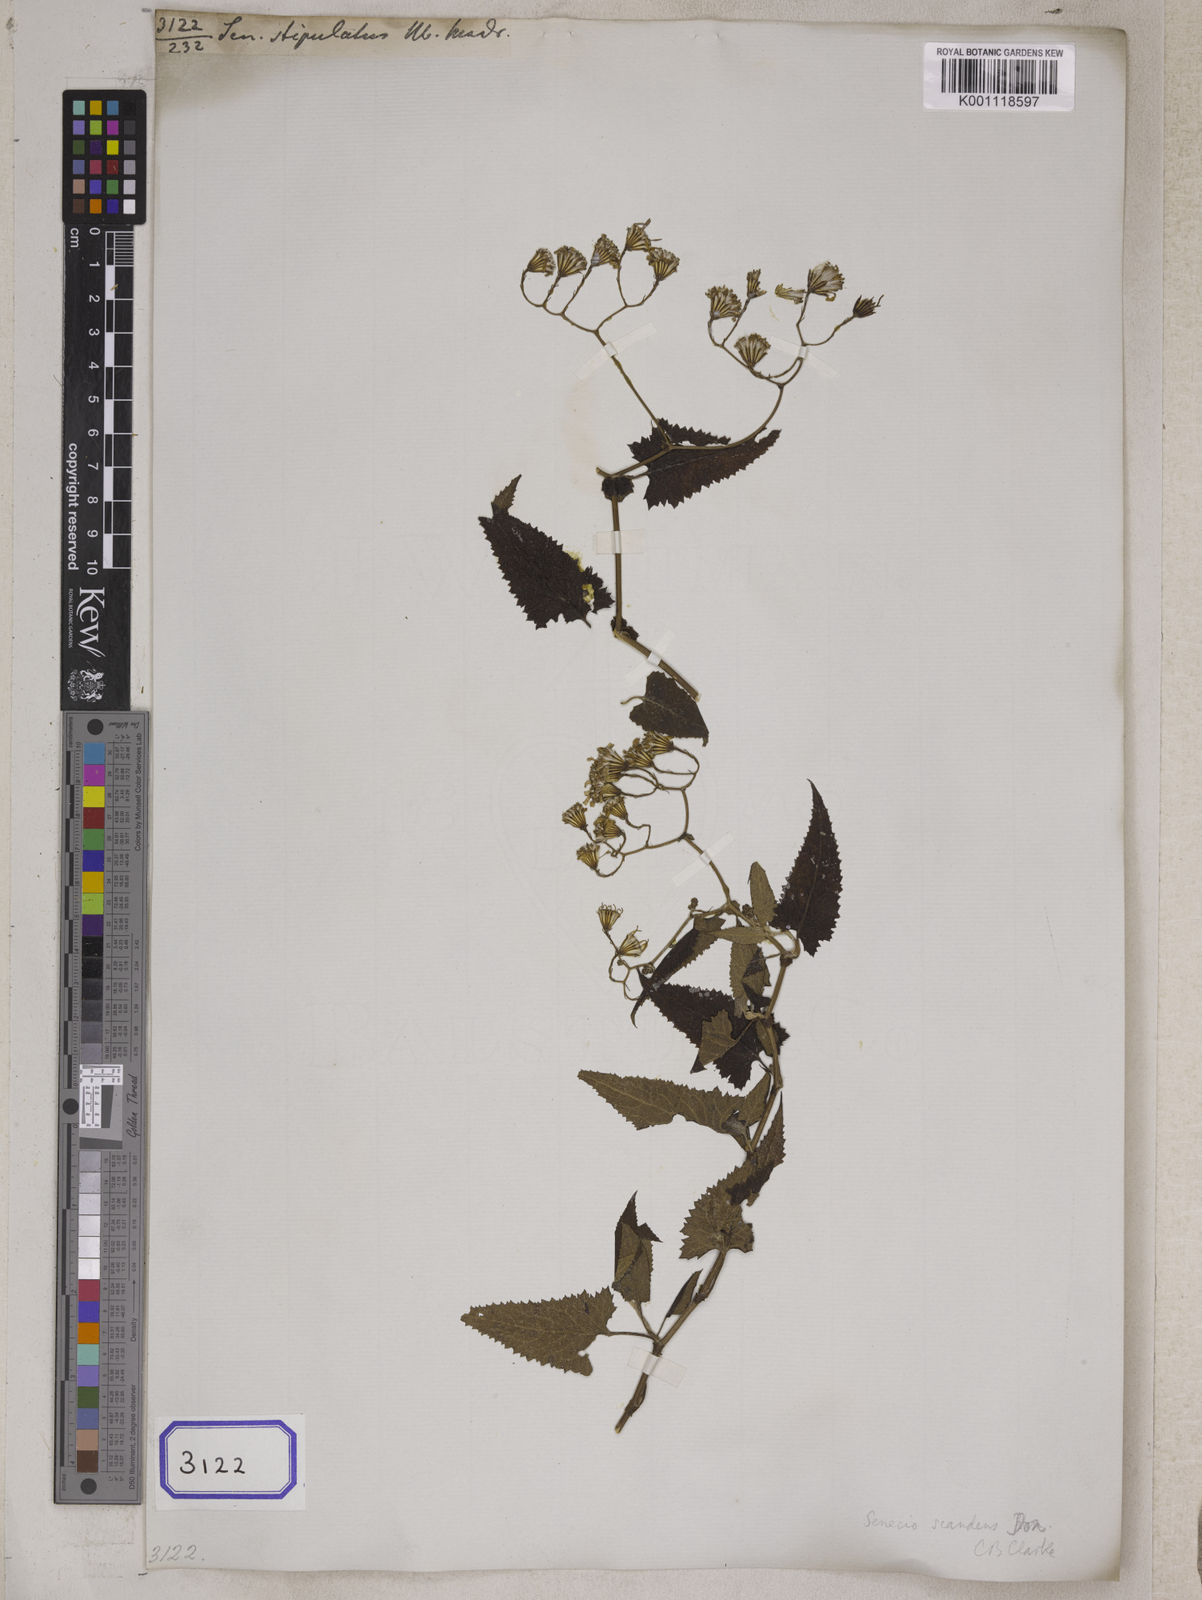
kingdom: Plantae
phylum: Tracheophyta
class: Magnoliopsida
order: Asterales
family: Asteraceae
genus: Senecio
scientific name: Senecio
